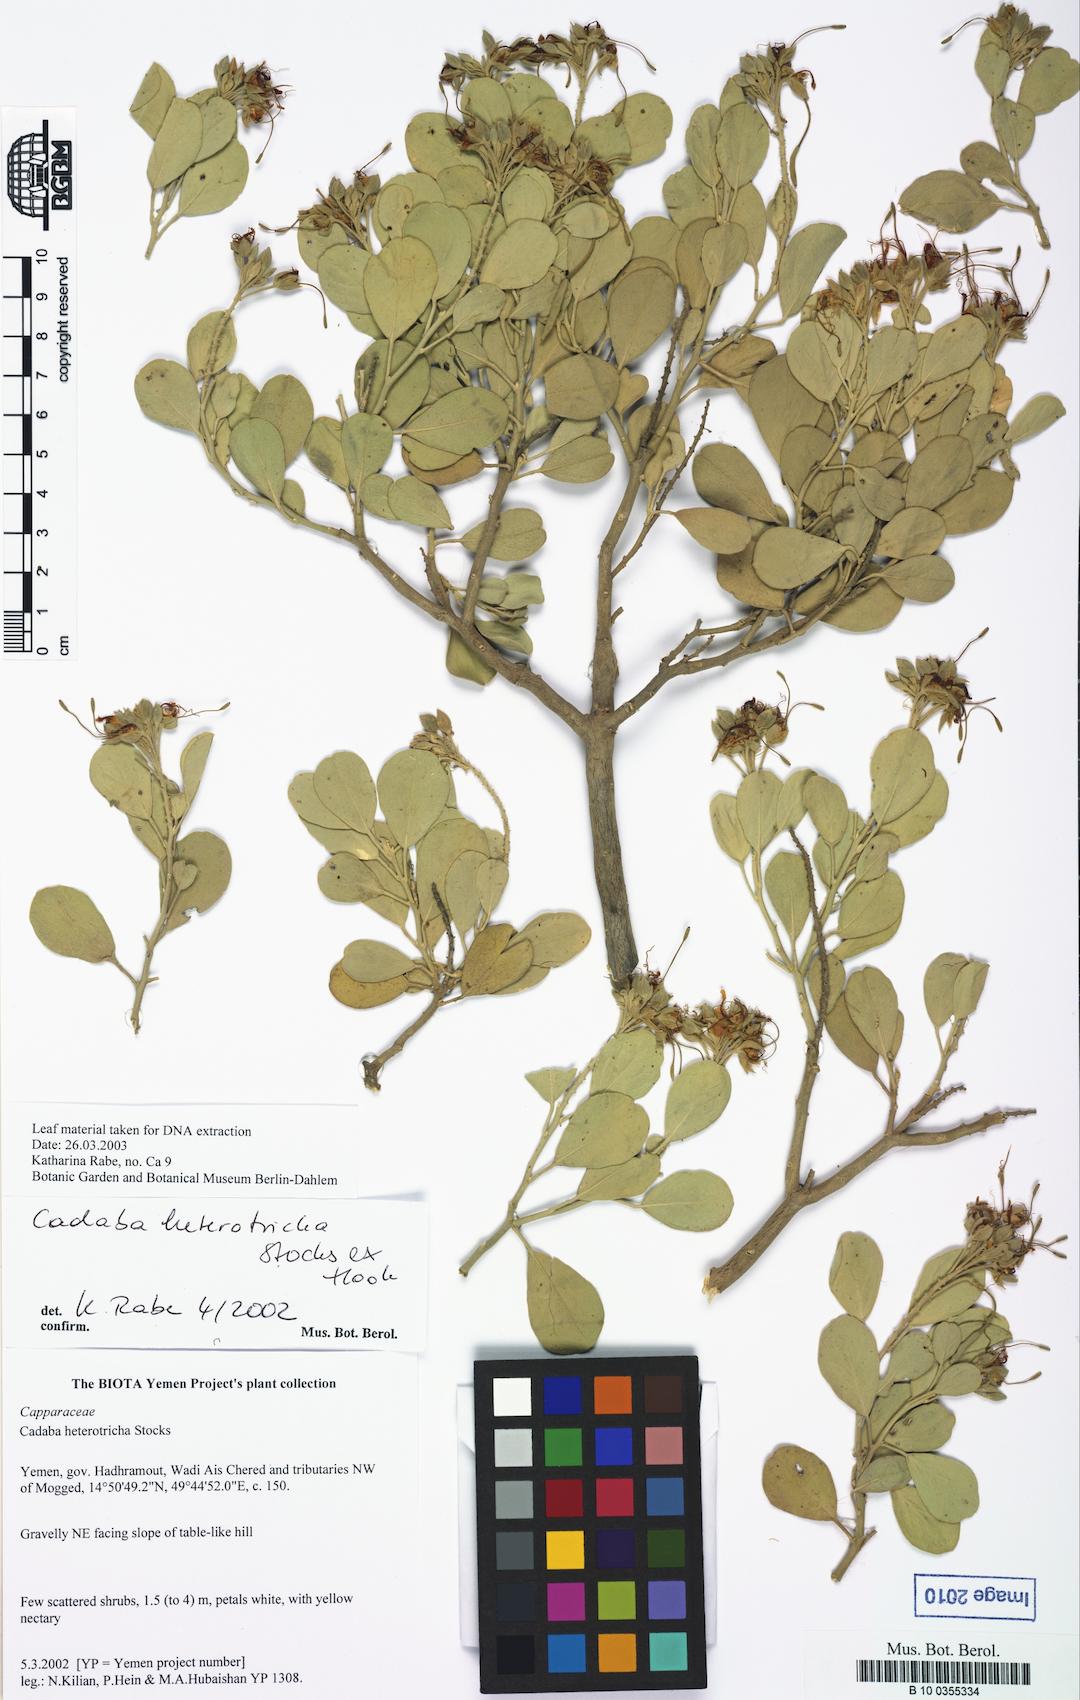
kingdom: Plantae
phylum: Tracheophyta
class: Magnoliopsida
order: Brassicales
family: Capparaceae
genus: Cadaba
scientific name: Cadaba linearifolia
